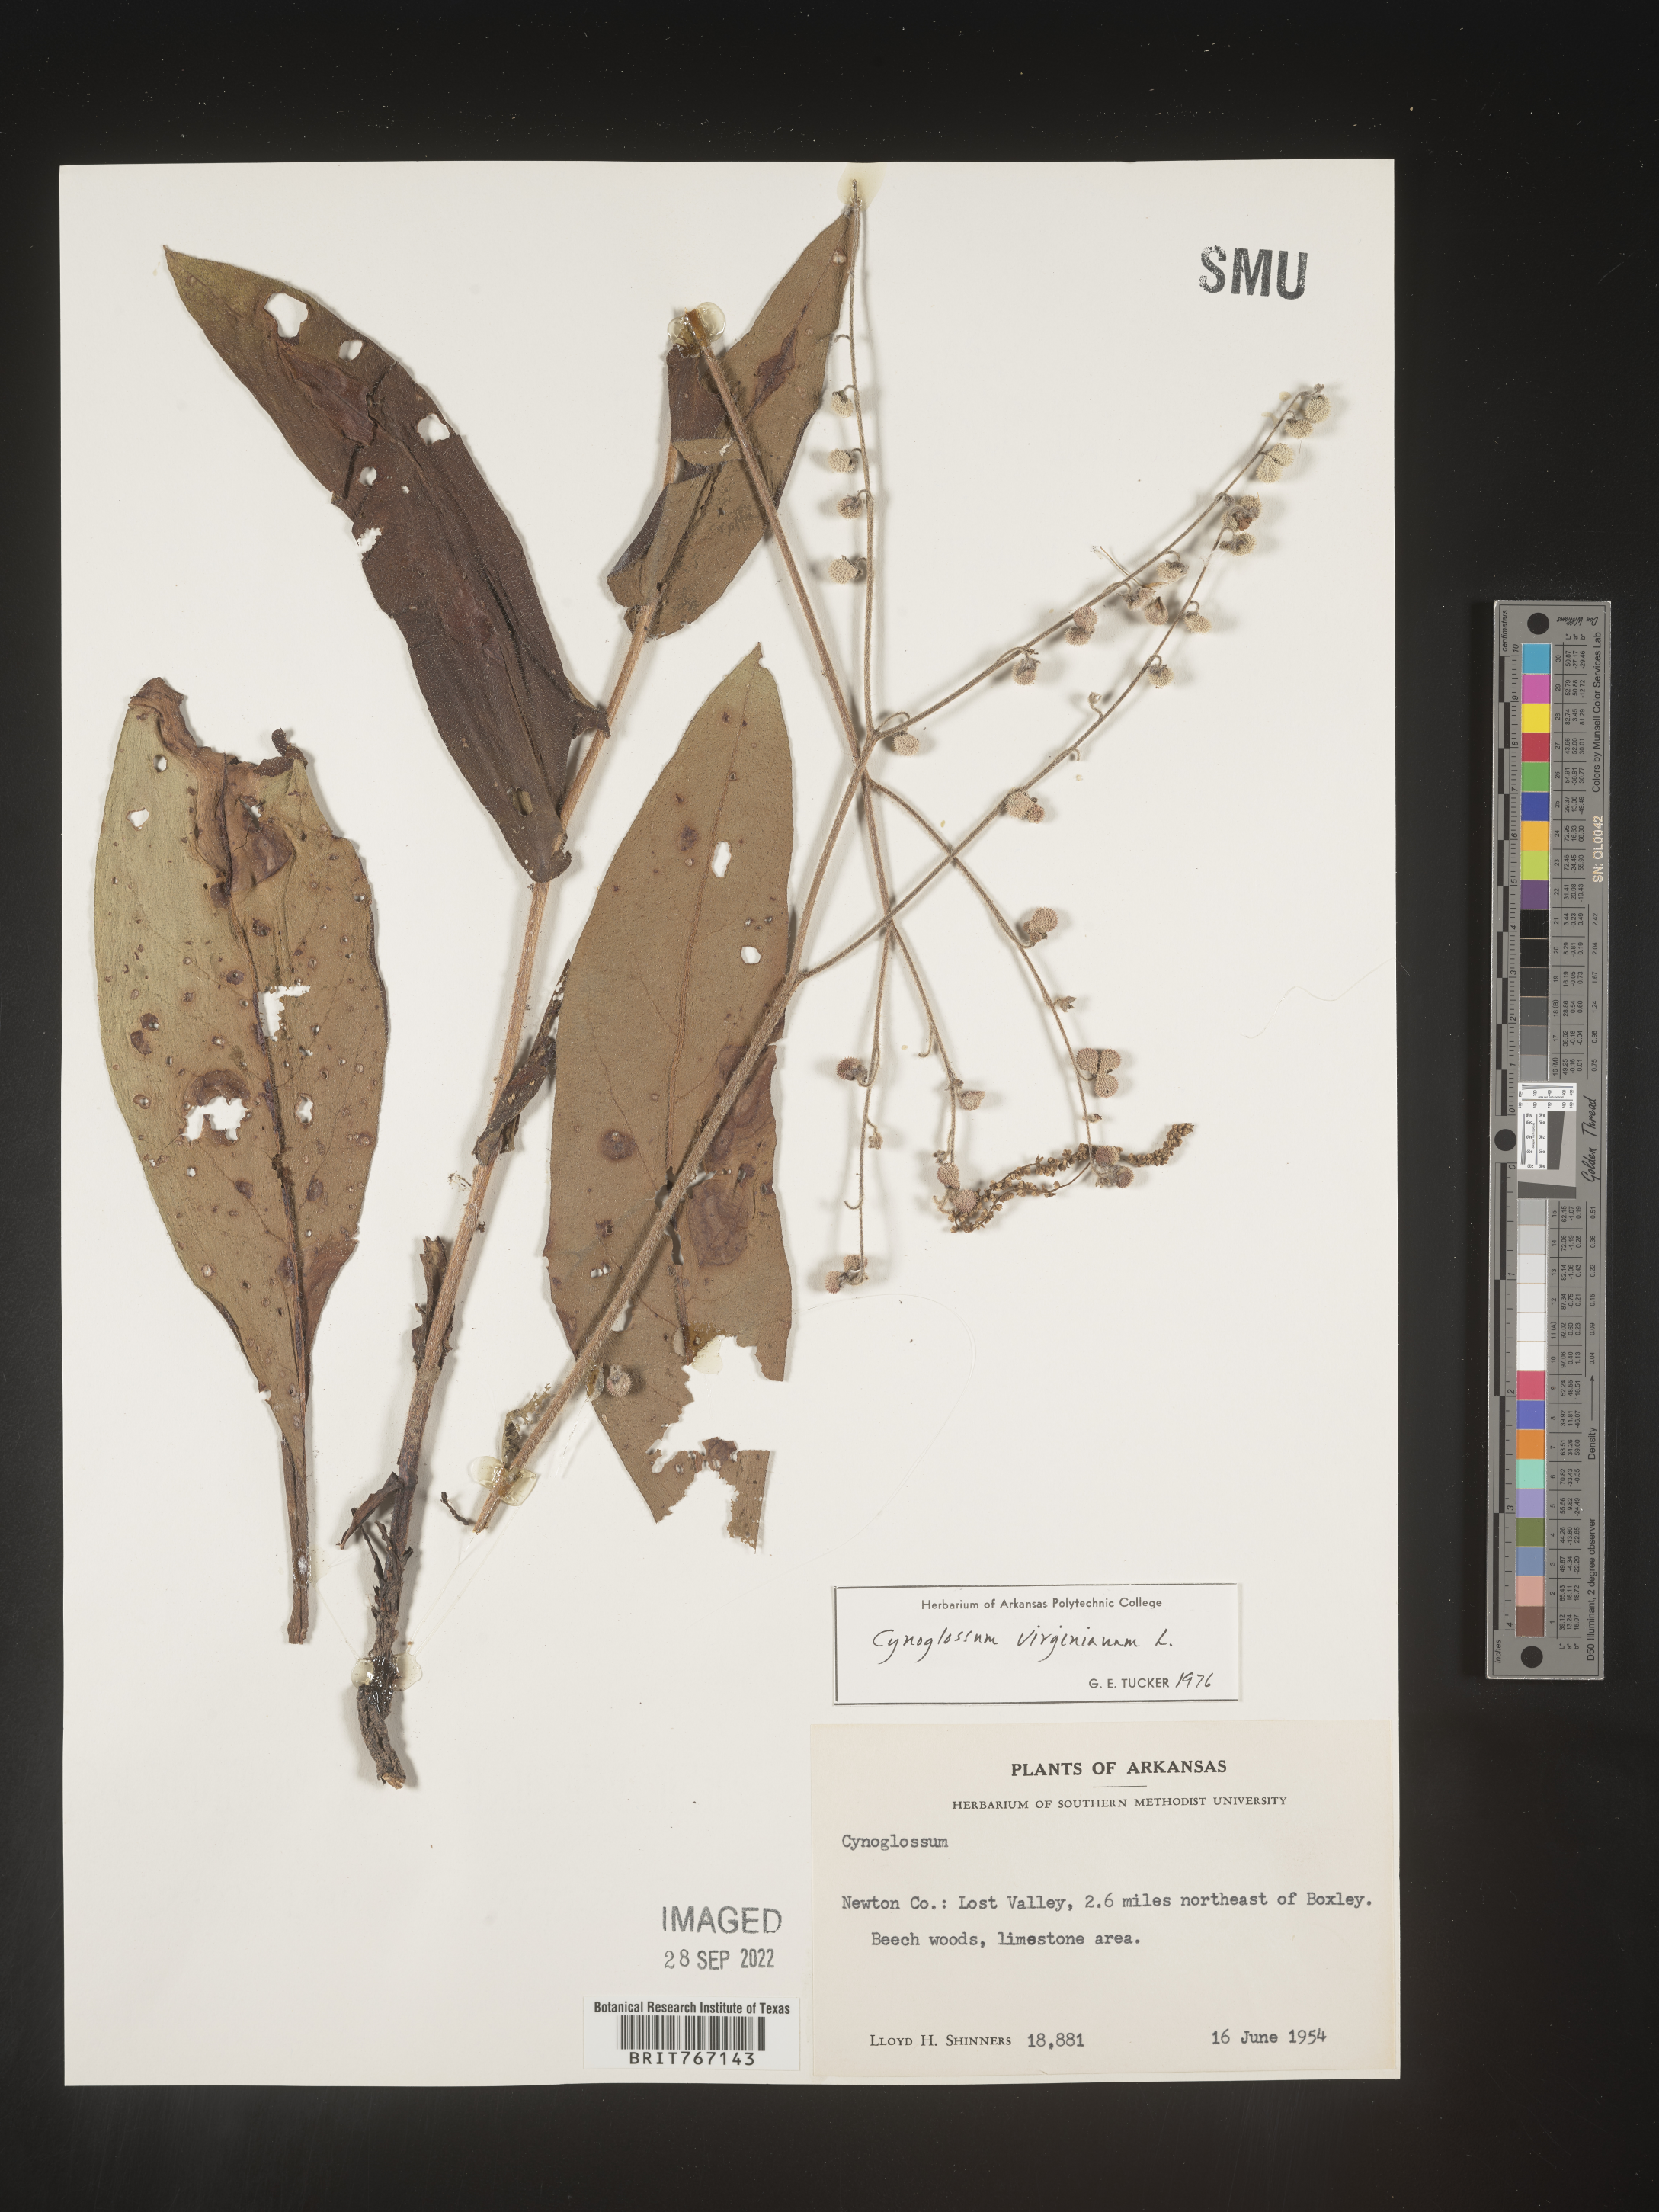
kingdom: Plantae
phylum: Tracheophyta
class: Magnoliopsida
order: Boraginales
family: Boraginaceae
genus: Andersonglossum
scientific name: Andersonglossum virginianum
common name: Wild comfrey
